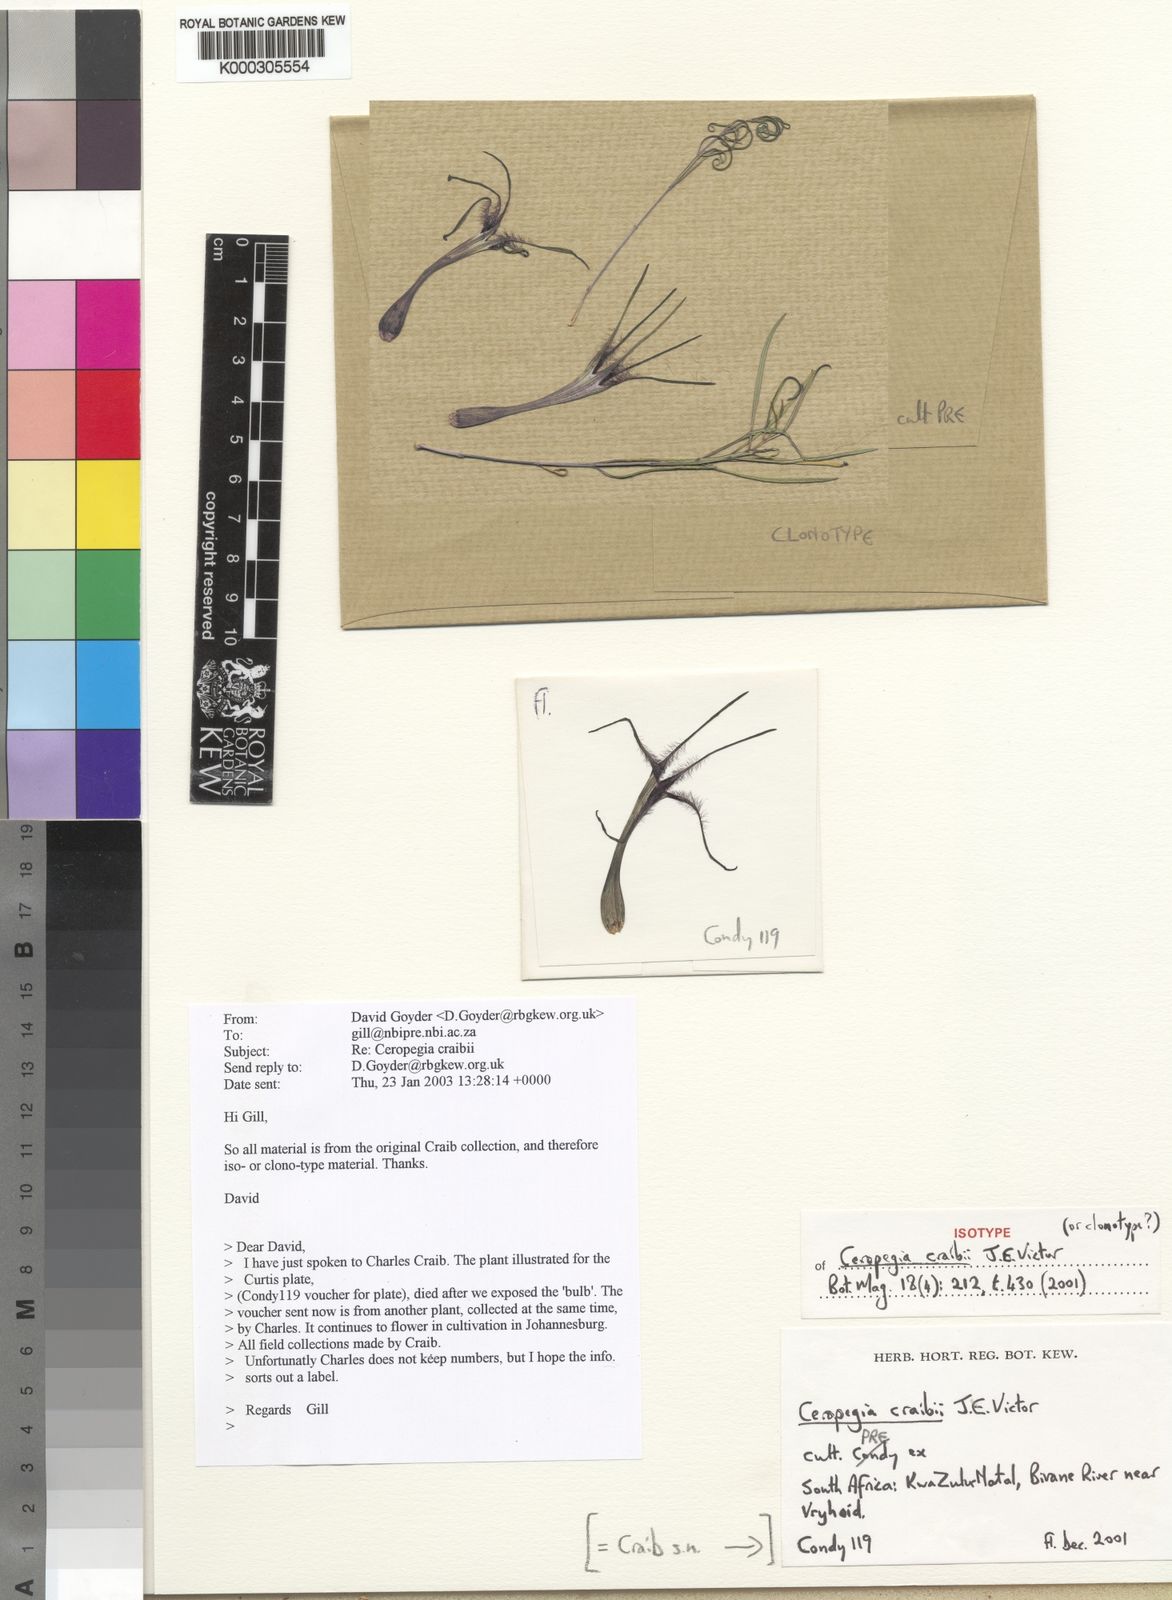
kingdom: Plantae
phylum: Tracheophyta
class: Magnoliopsida
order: Gentianales
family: Apocynaceae
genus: Ceropegia
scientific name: Ceropegia antennifera
